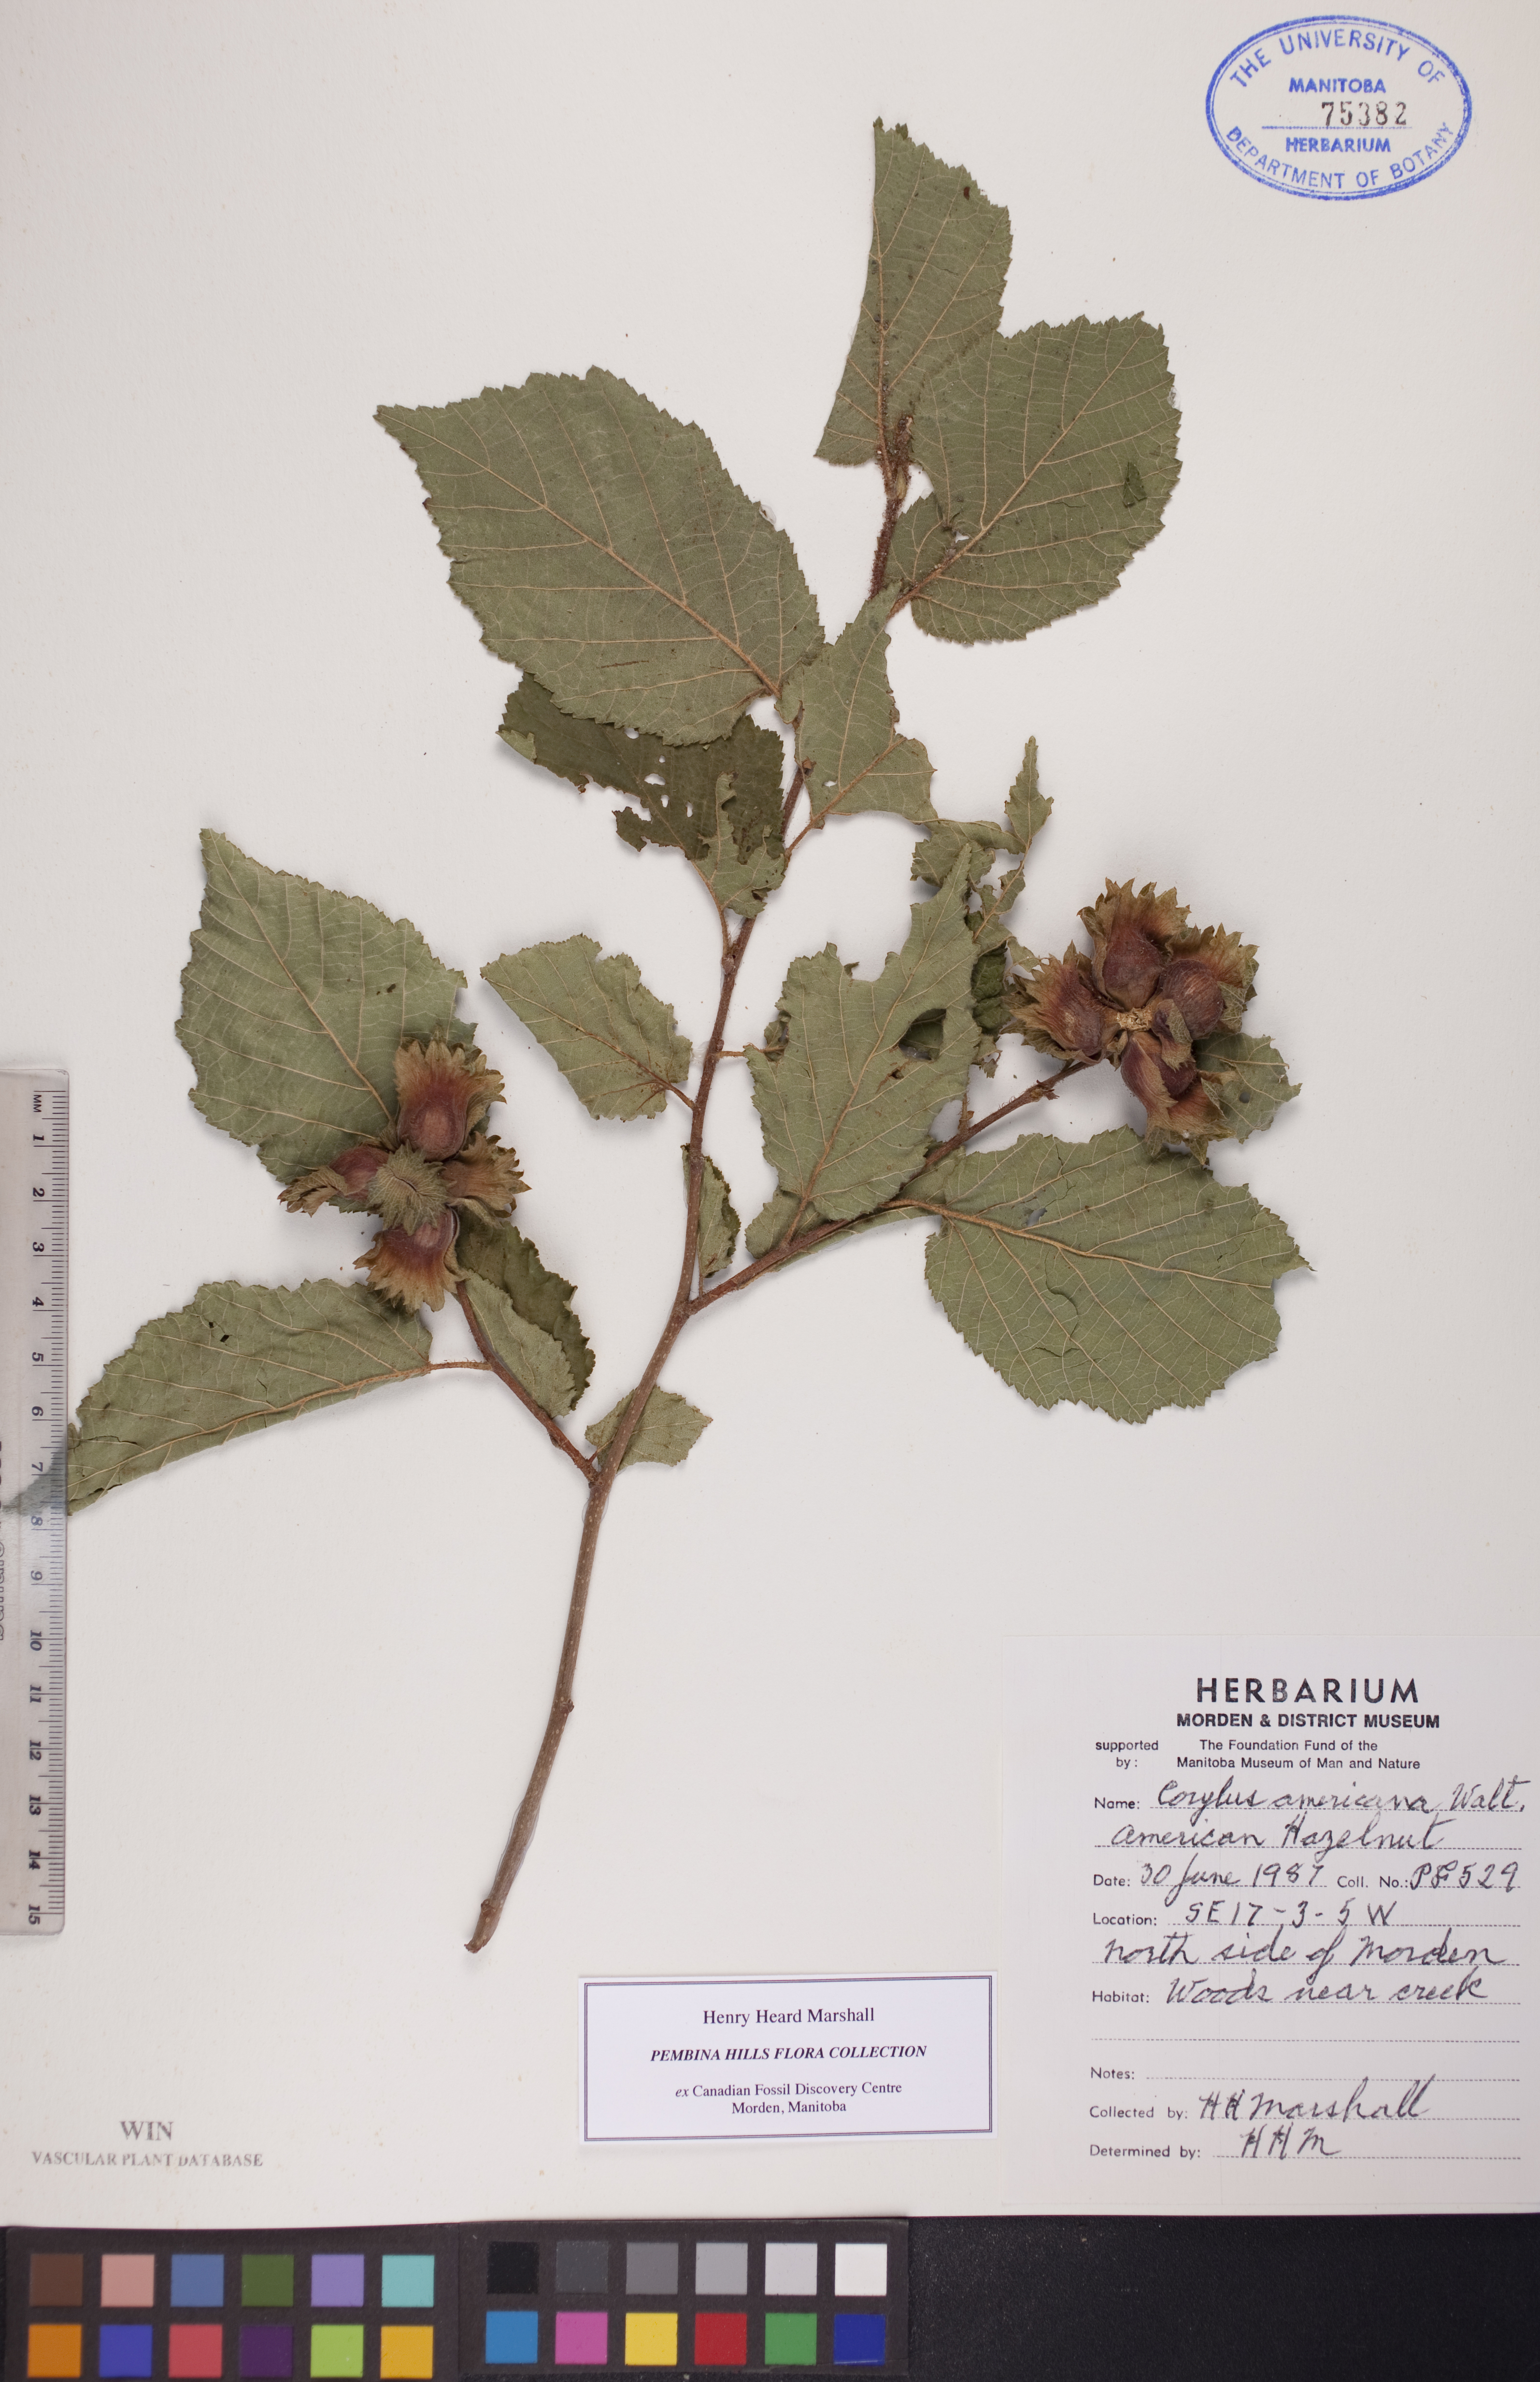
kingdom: Plantae
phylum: Tracheophyta
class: Magnoliopsida
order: Fagales
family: Betulaceae
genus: Corylus
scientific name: Corylus americana
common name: American hazel
